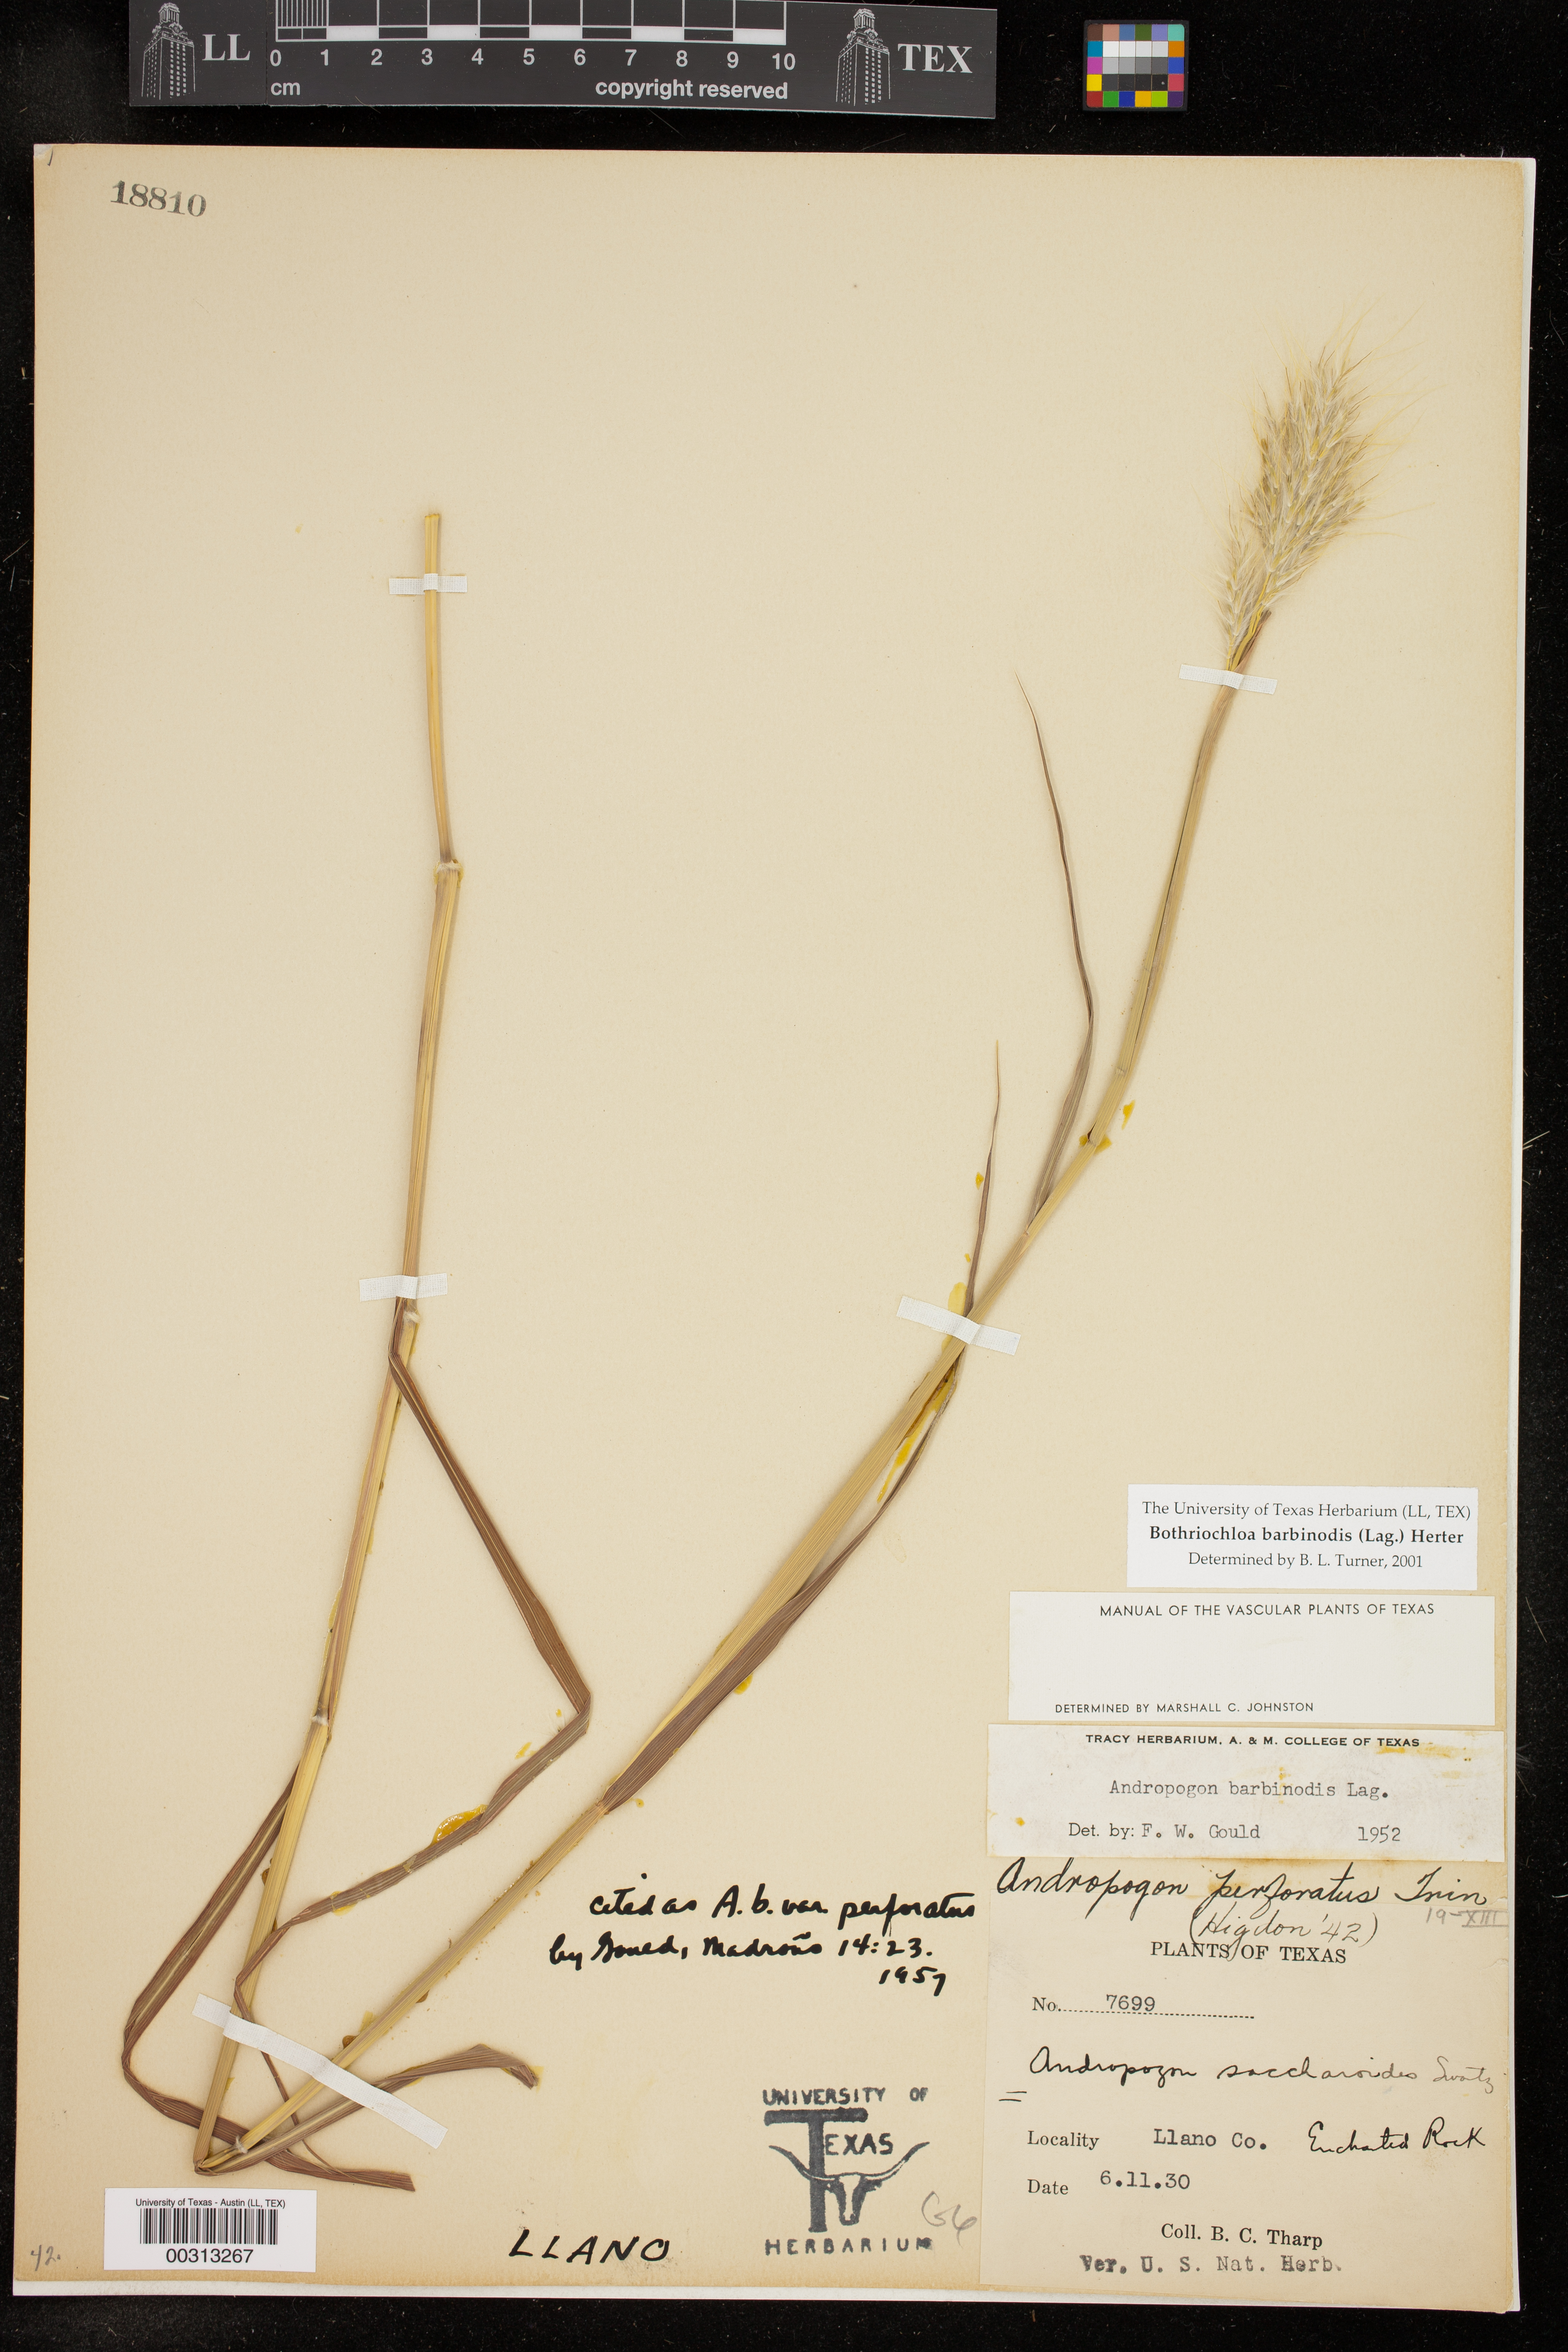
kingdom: Plantae
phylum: Tracheophyta
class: Liliopsida
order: Poales
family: Poaceae
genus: Bothriochloa
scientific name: Bothriochloa barbinodis
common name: Cane bluestem
